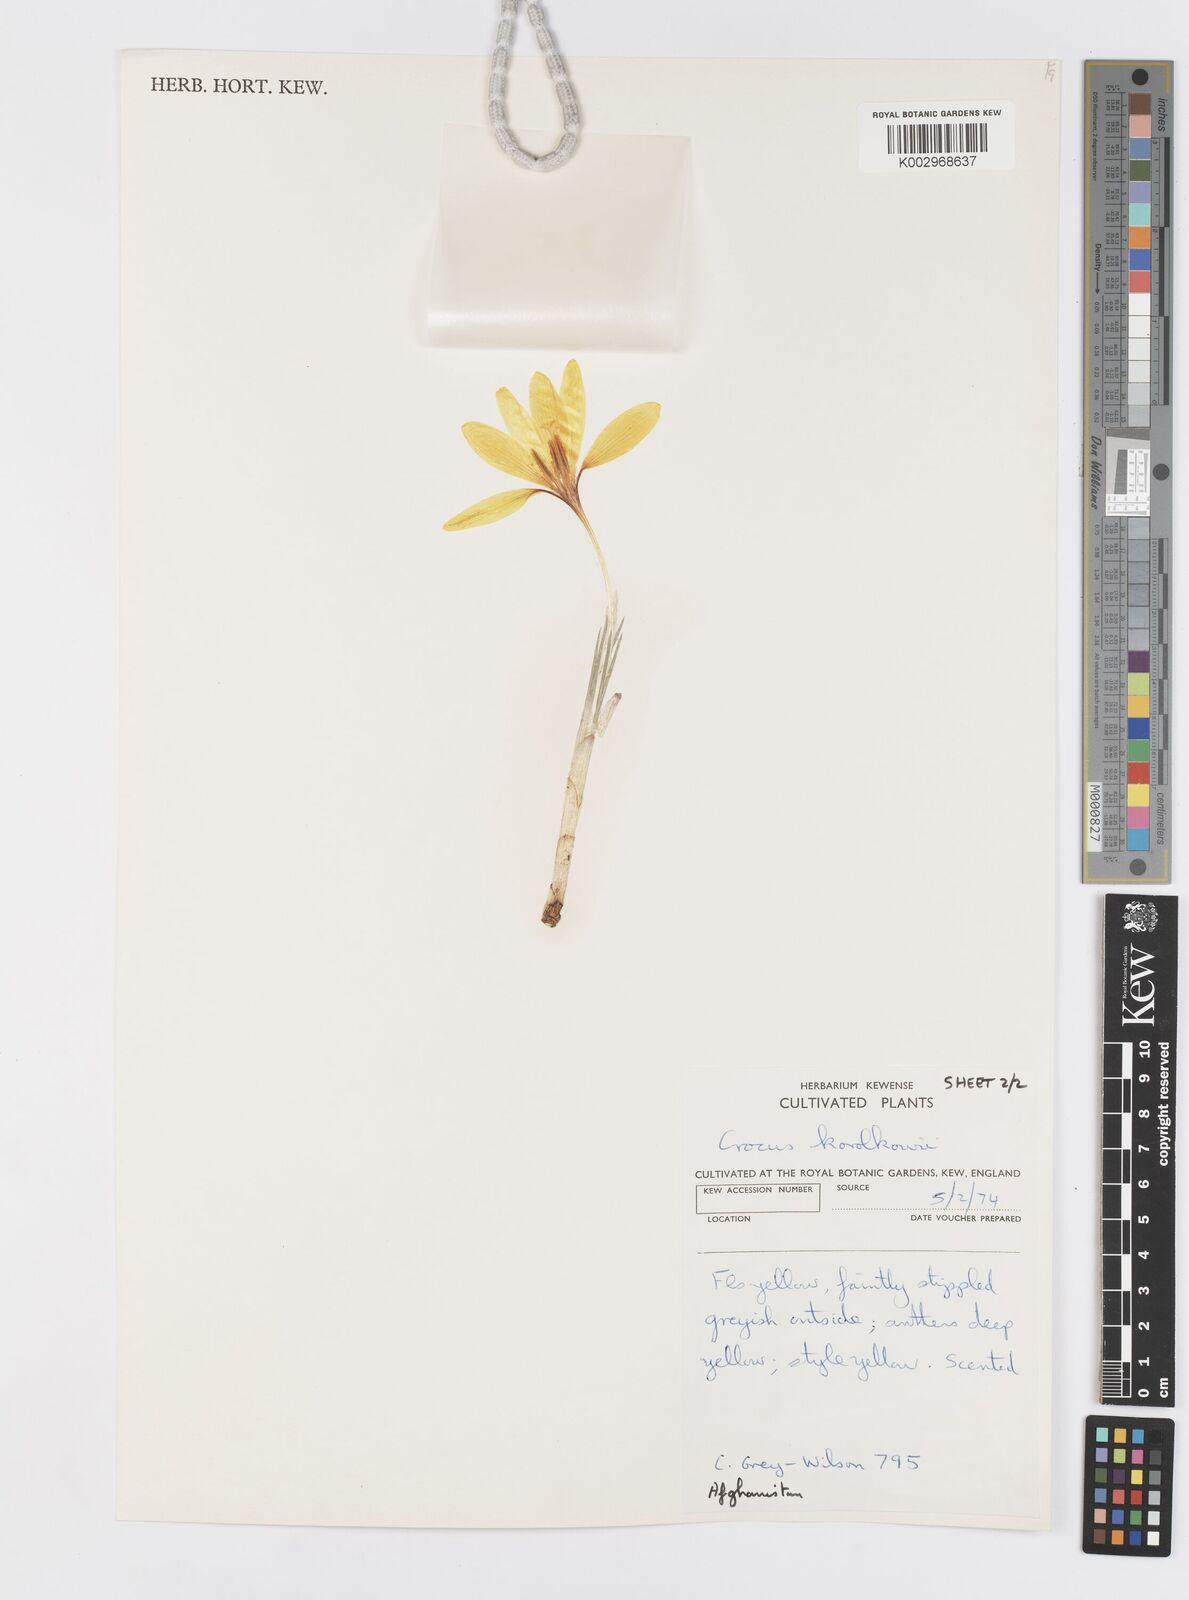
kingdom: Plantae
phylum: Tracheophyta
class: Liliopsida
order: Asparagales
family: Iridaceae
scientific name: Iridaceae
